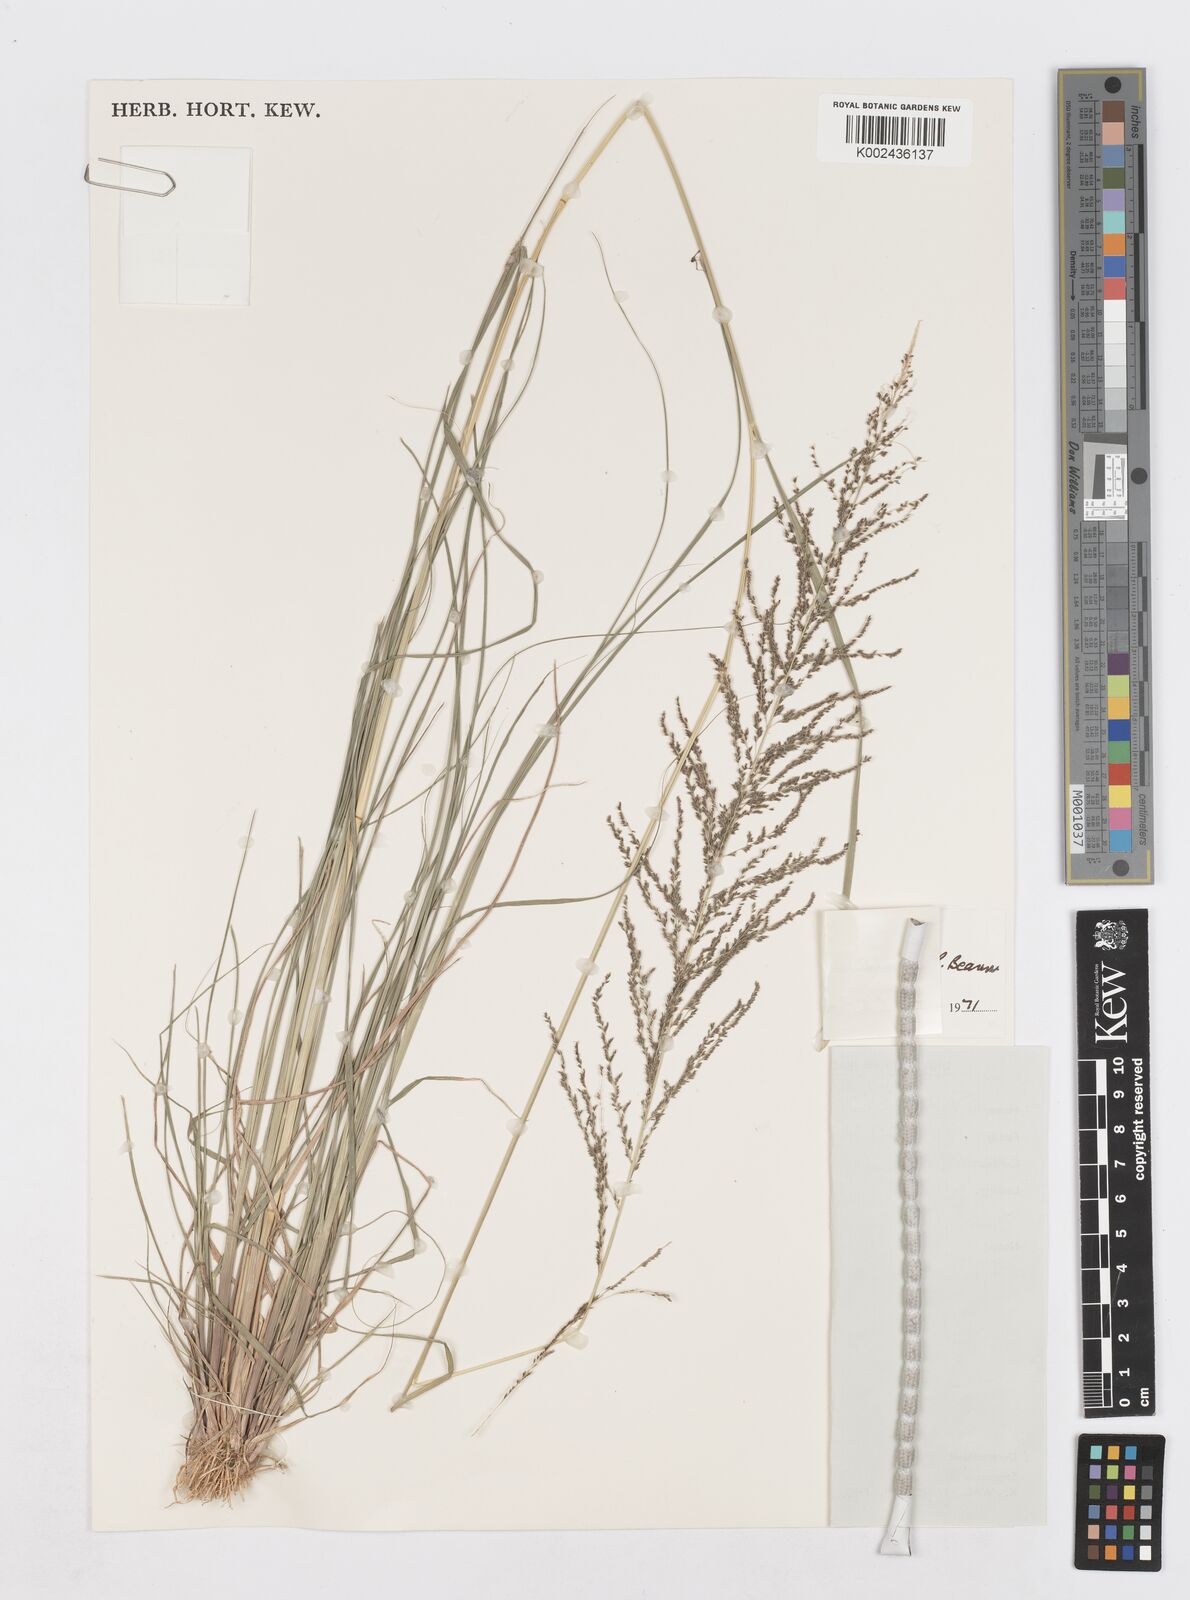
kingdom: Plantae
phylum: Tracheophyta
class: Liliopsida
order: Poales
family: Poaceae
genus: Sporobolus
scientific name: Sporobolus pyramidalis
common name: West indian dropseed
